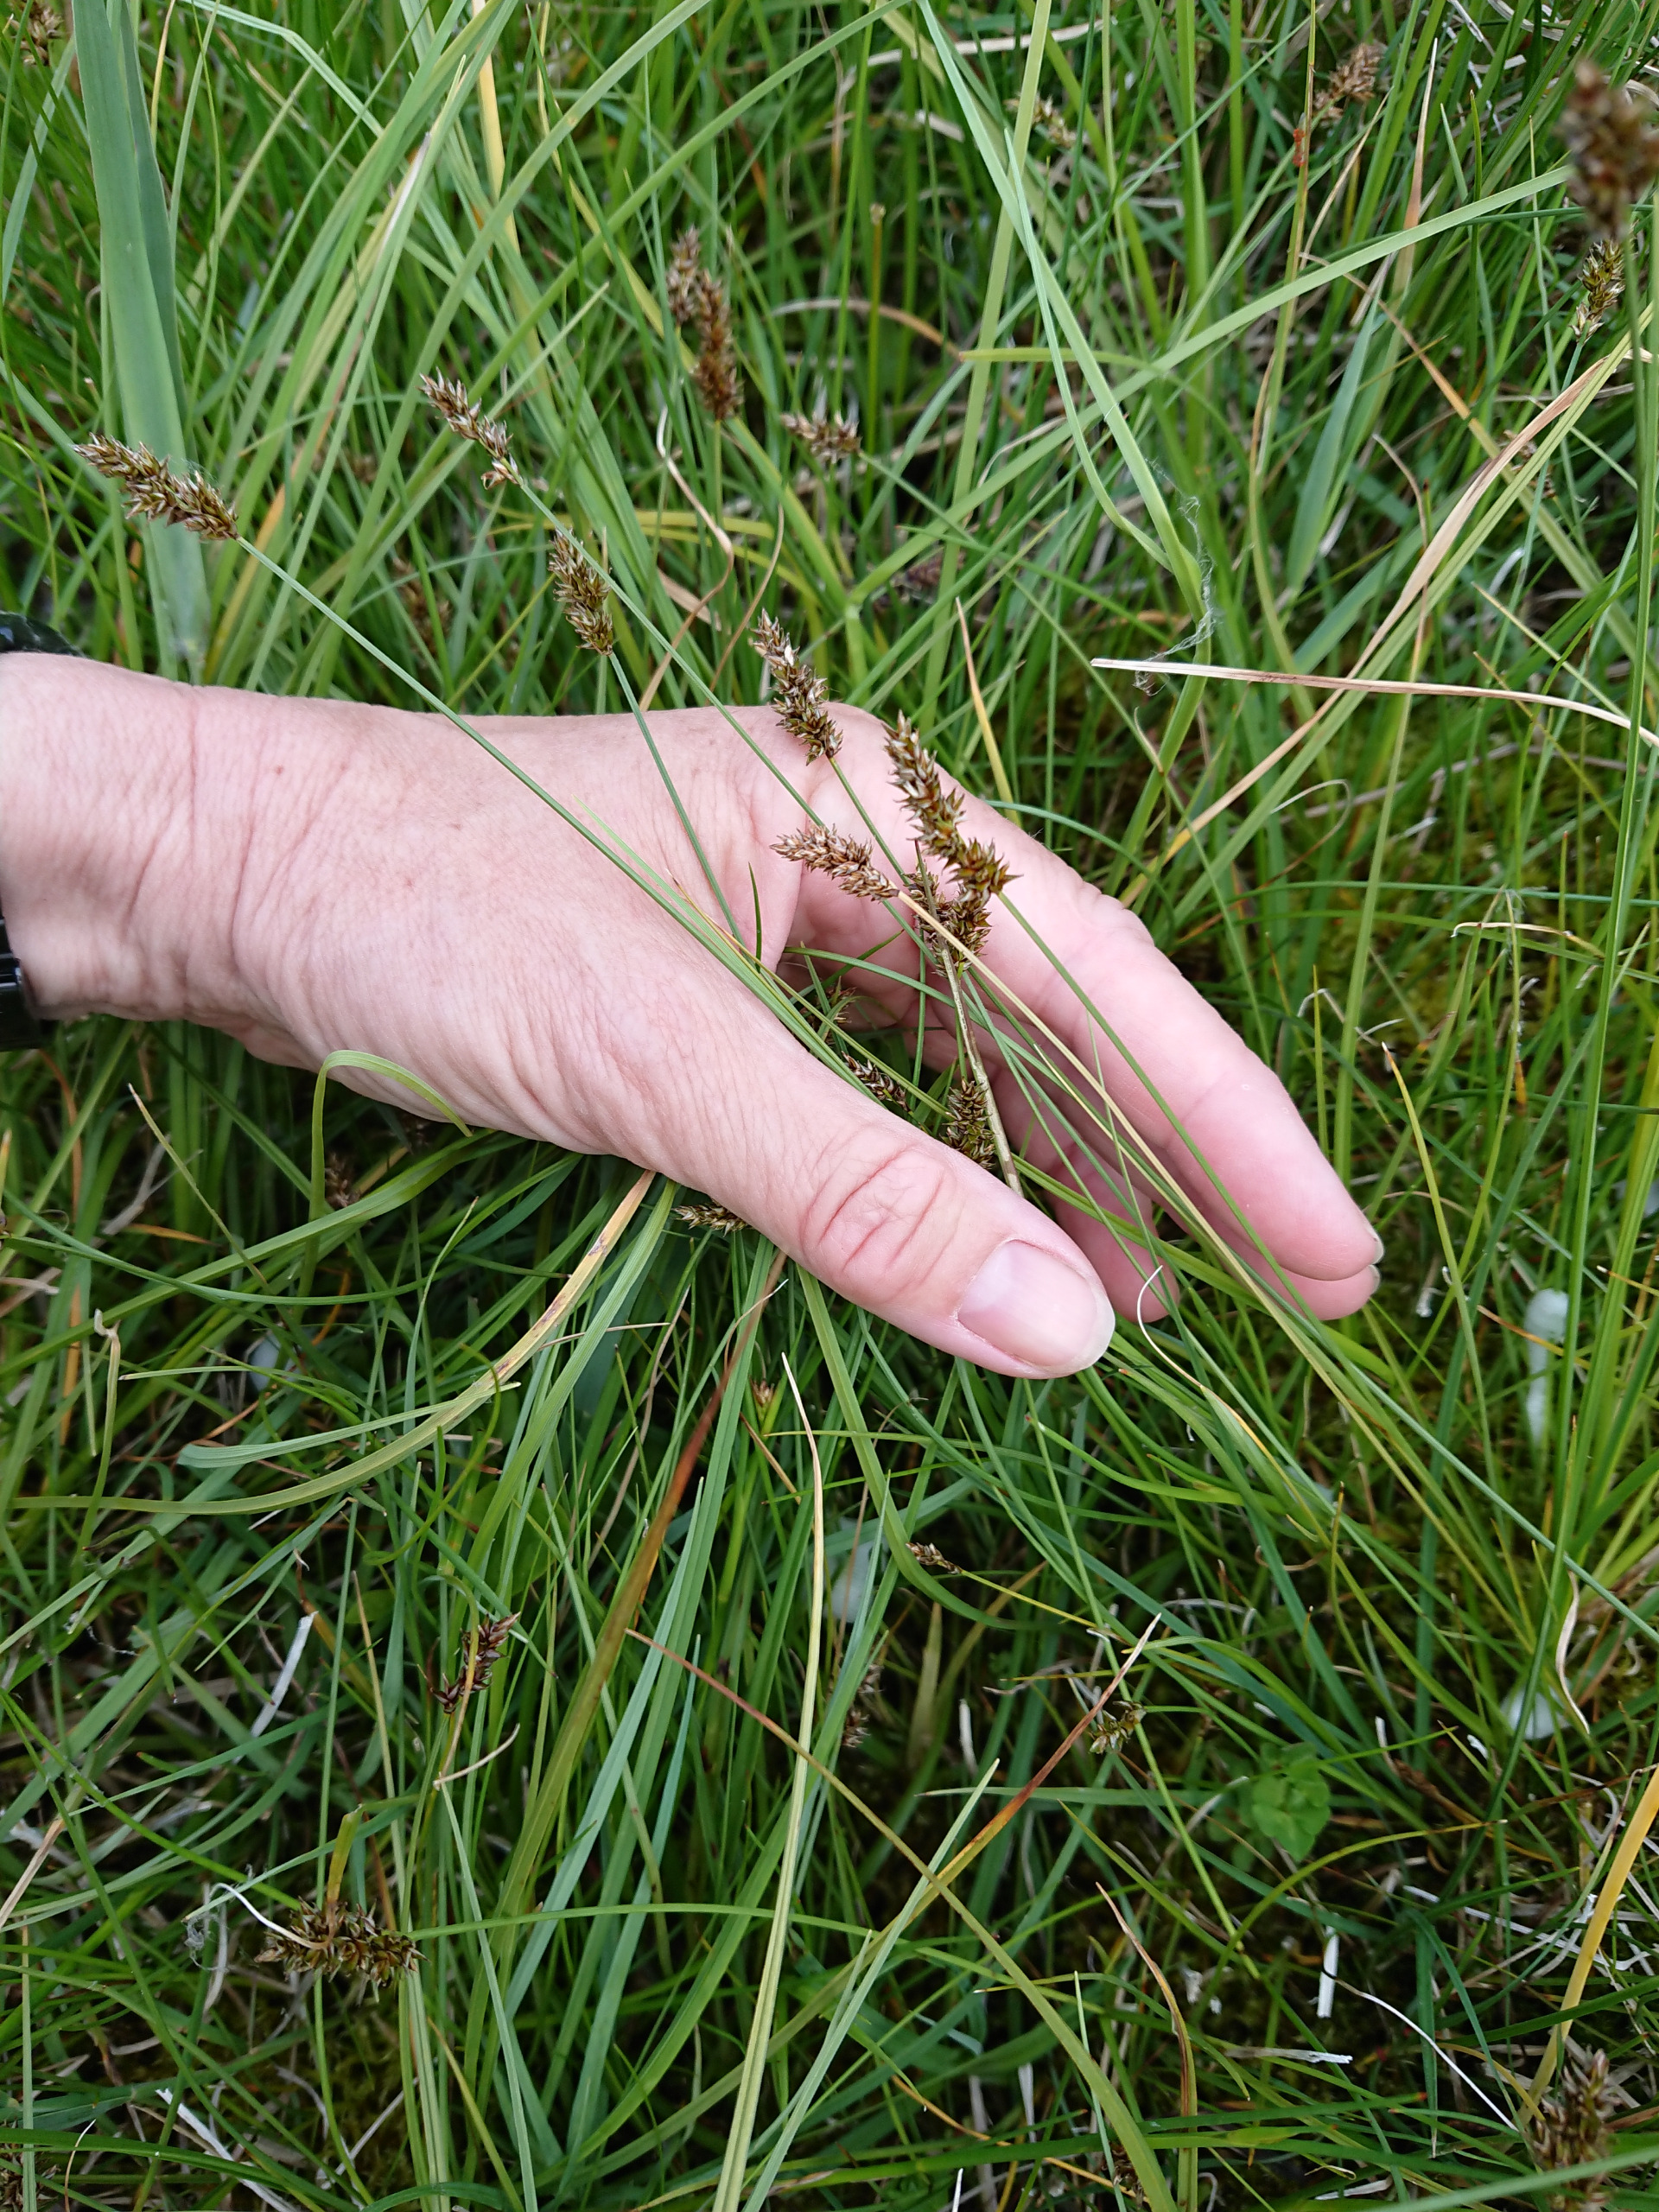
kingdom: Plantae
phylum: Tracheophyta
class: Liliopsida
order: Poales
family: Cyperaceae
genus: Carex
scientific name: Carex diandra
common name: Trindstænglet star
